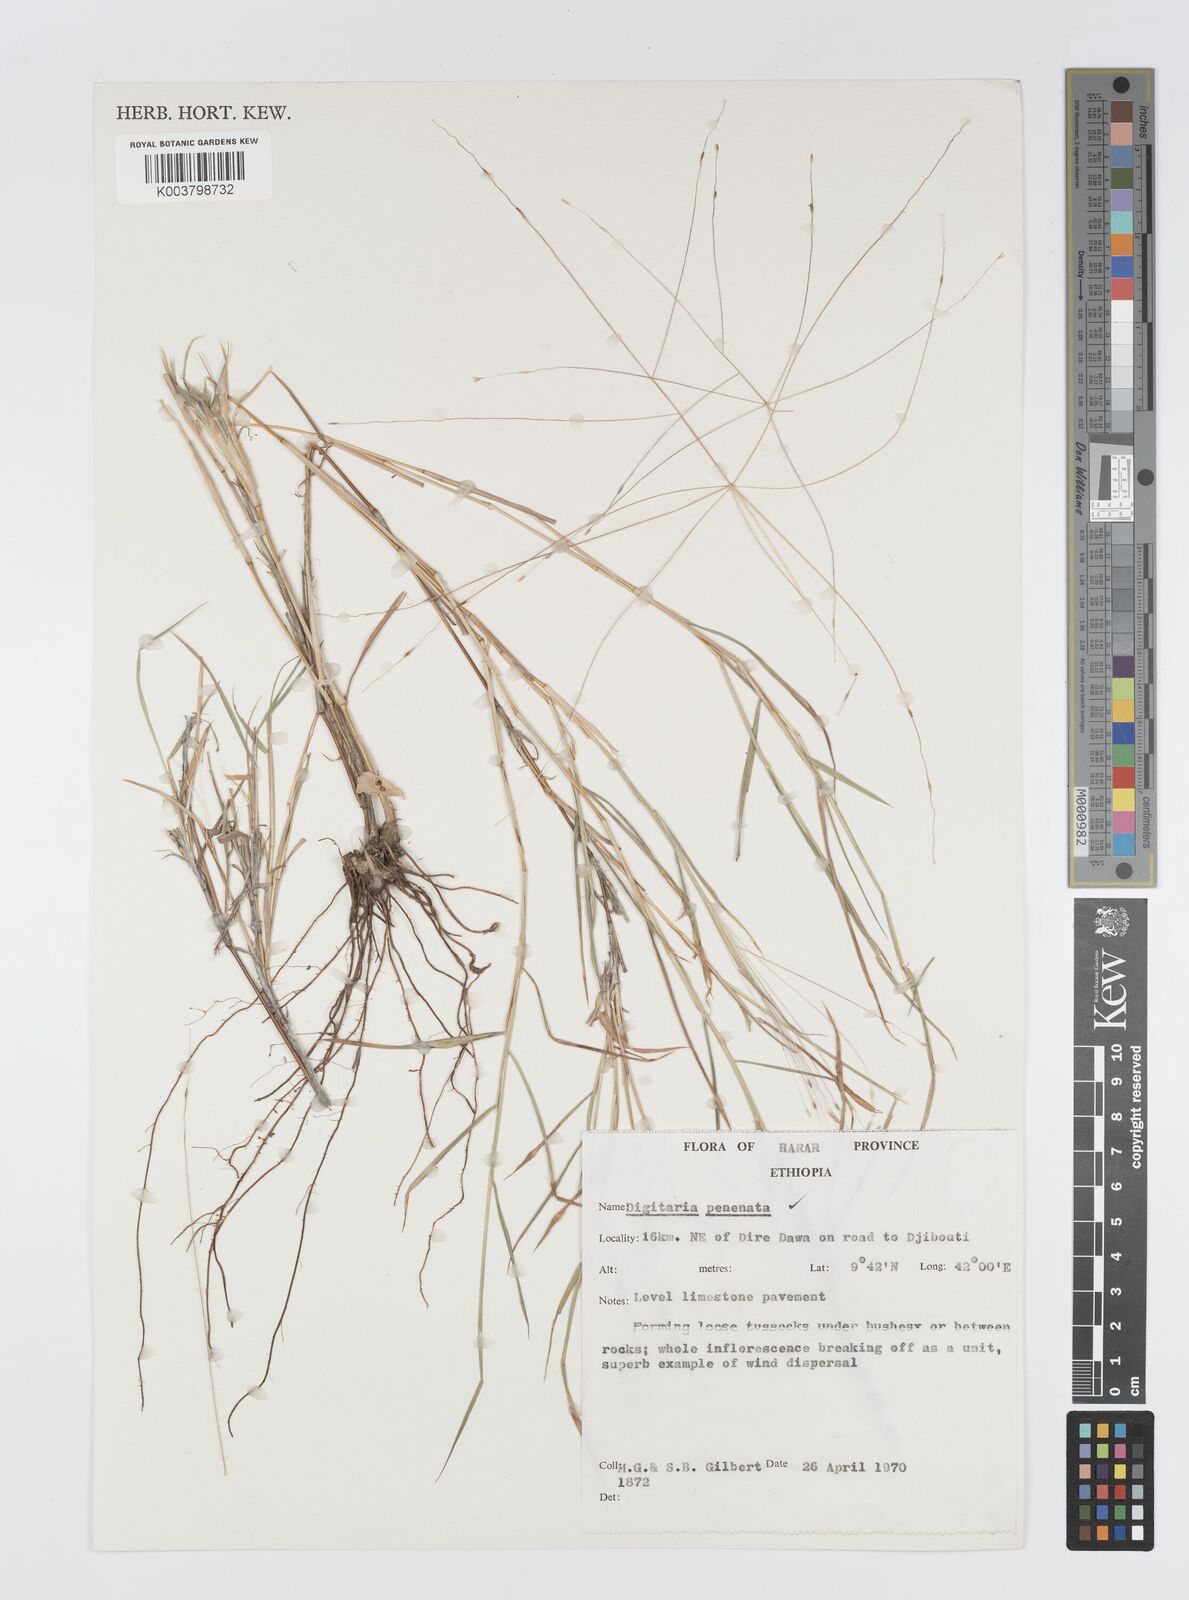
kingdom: Plantae
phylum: Tracheophyta
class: Liliopsida
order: Poales
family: Poaceae
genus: Digitaria
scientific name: Digitaria pennata
